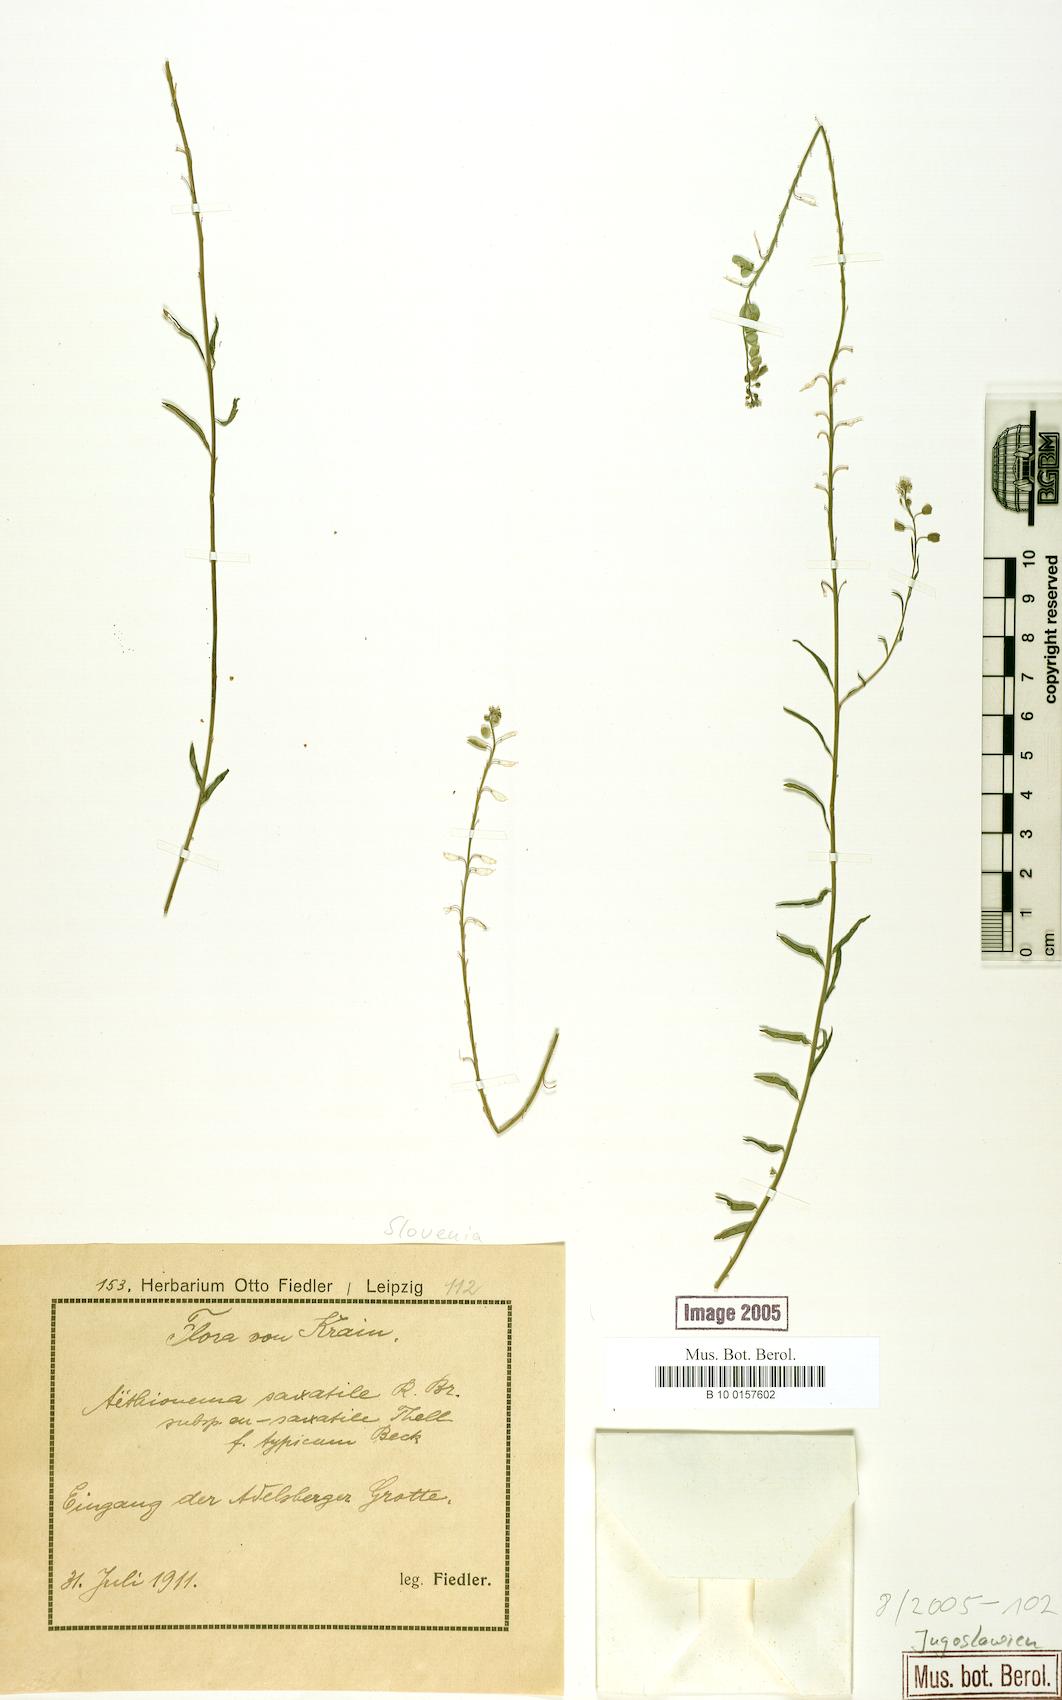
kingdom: Plantae
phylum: Tracheophyta
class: Magnoliopsida
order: Brassicales
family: Brassicaceae
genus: Aethionema
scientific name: Aethionema saxatile
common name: Burnt candytuft
